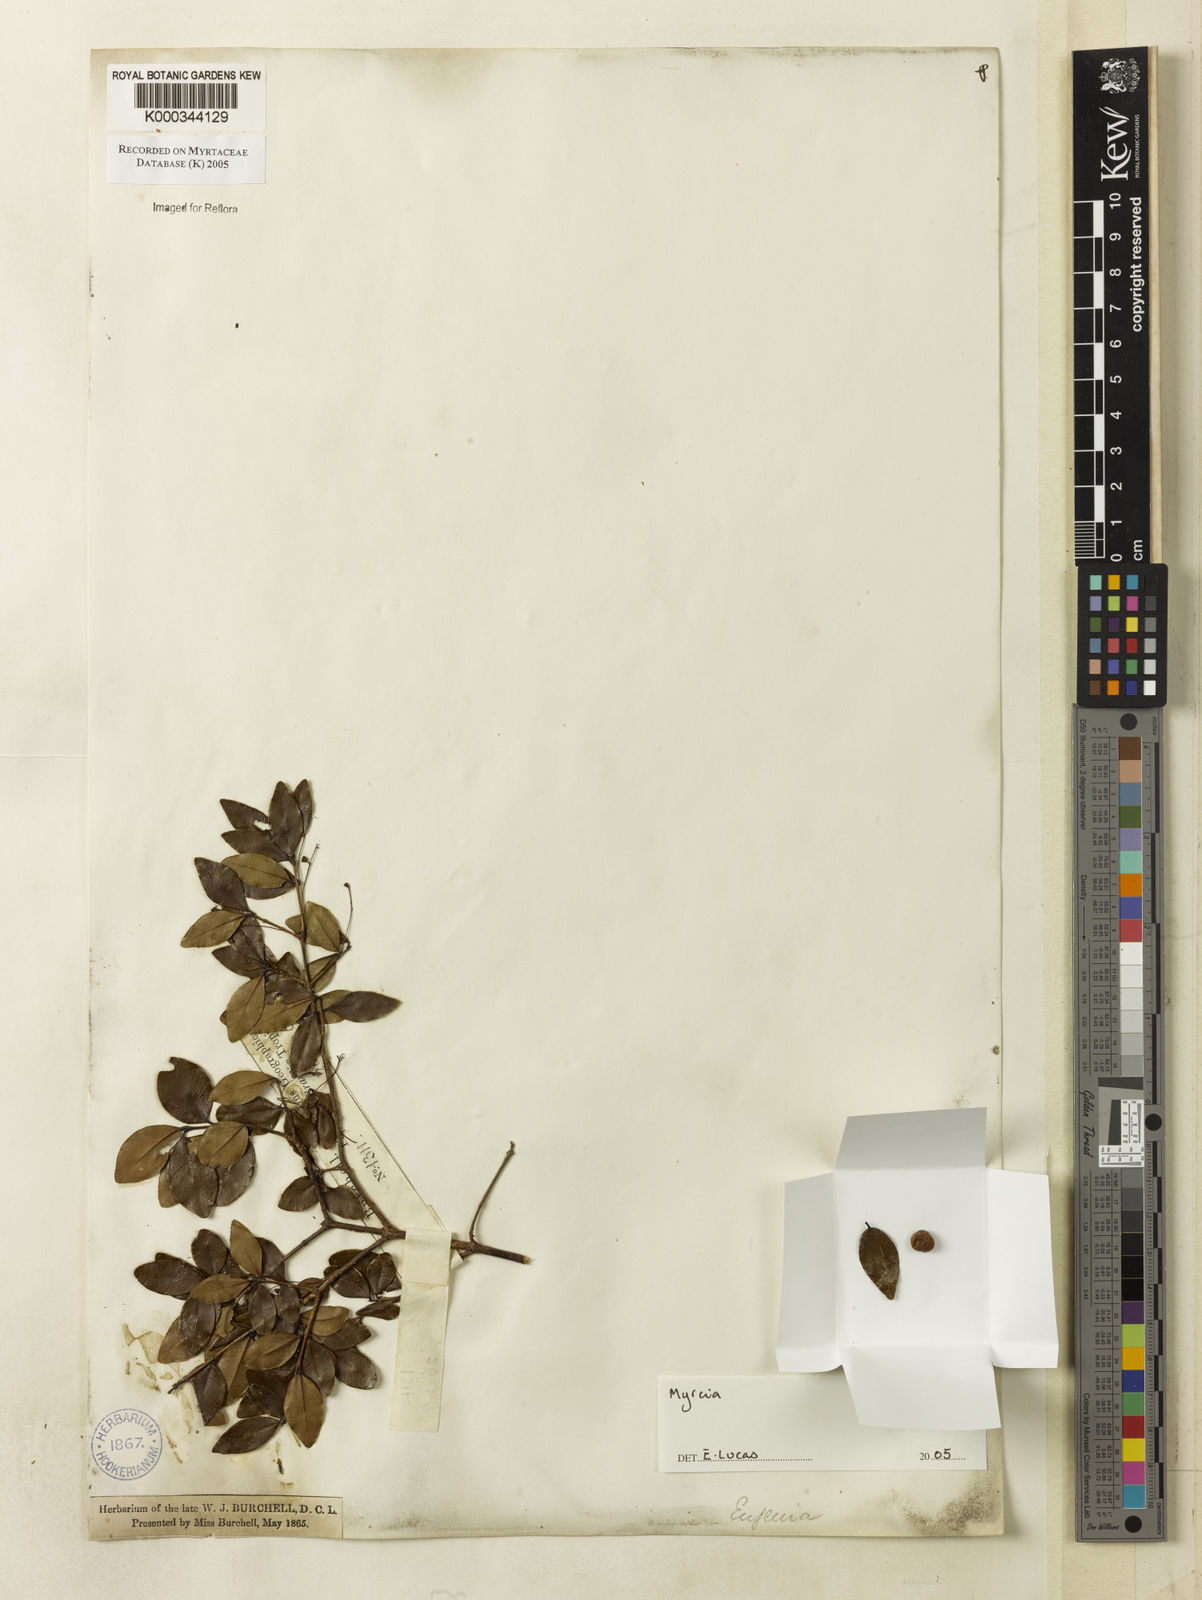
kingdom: Plantae
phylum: Tracheophyta
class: Magnoliopsida
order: Myrtales
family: Myrtaceae
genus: Myrcia
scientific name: Myrcia multiflora
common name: Pedra hume
